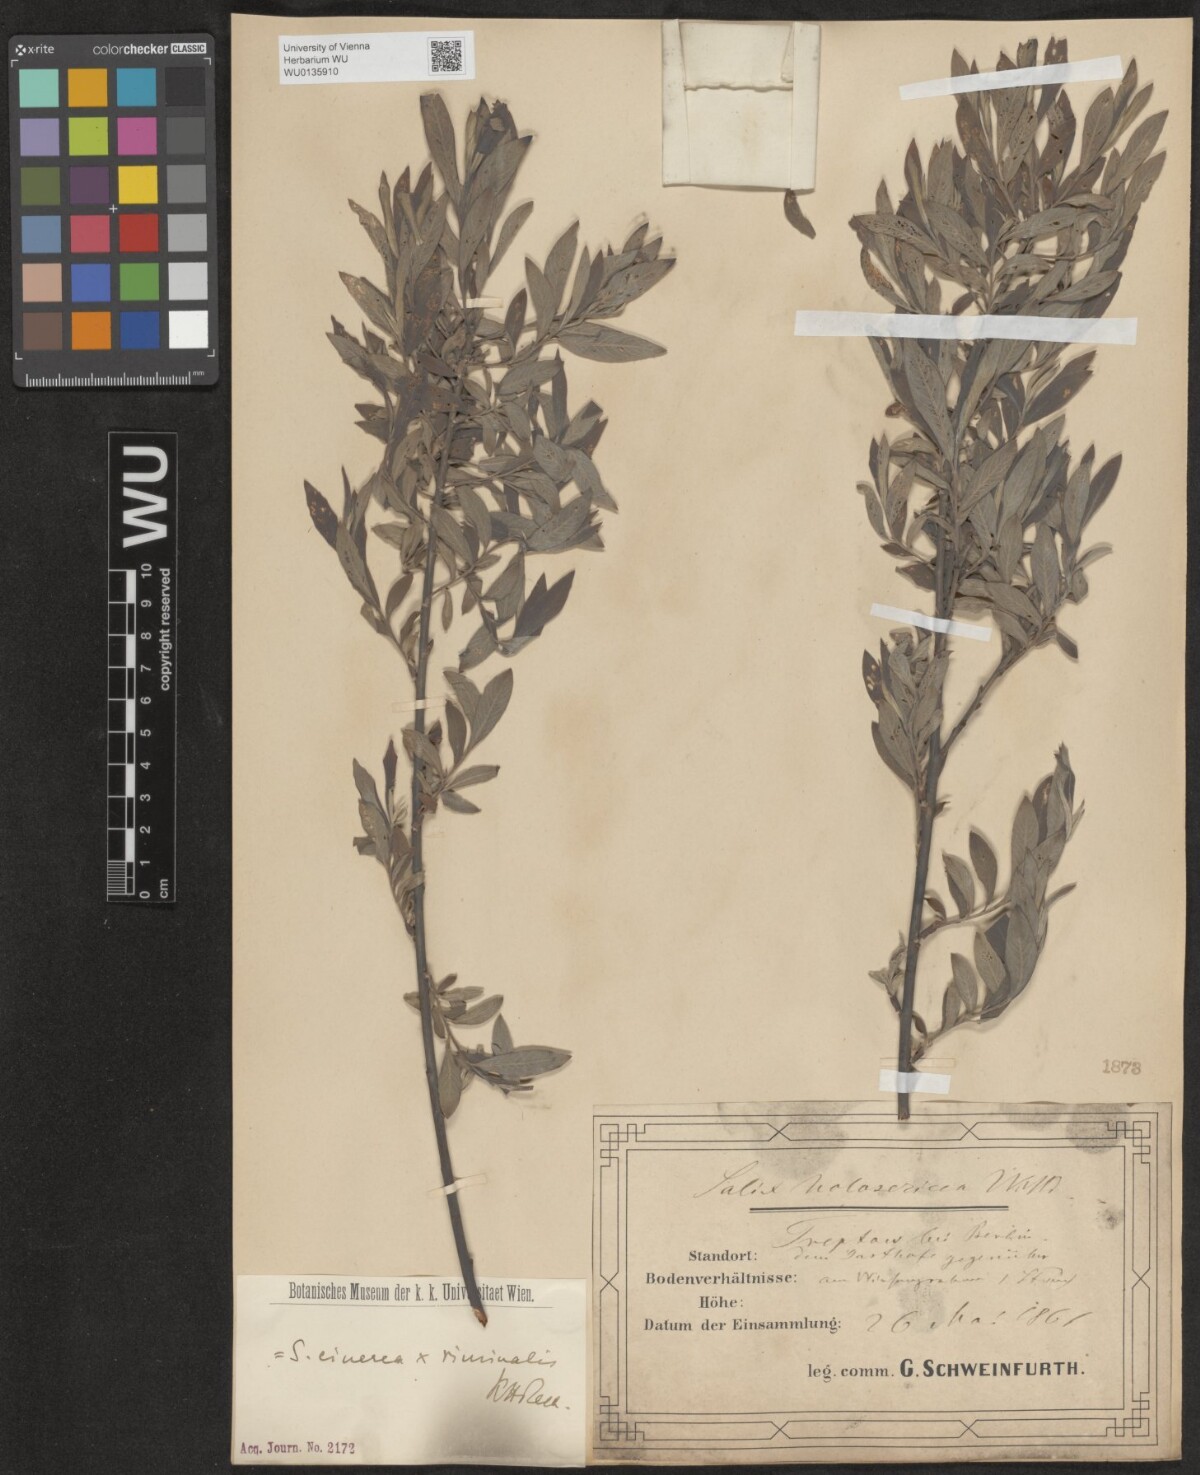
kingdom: Plantae
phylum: Tracheophyta
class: Magnoliopsida
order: Malpighiales
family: Salicaceae
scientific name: Salicaceae
